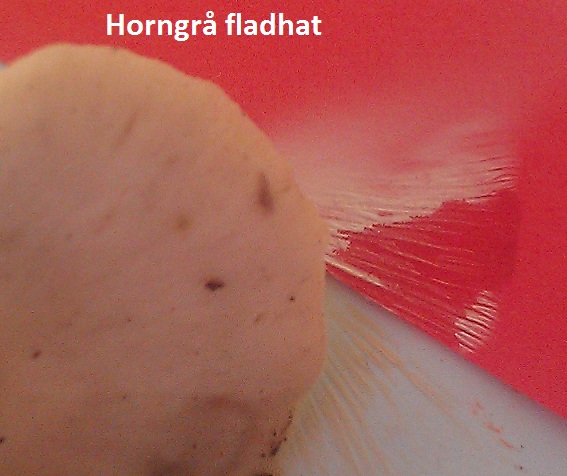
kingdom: Fungi
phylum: Basidiomycota
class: Agaricomycetes
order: Agaricales
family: Omphalotaceae
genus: Rhodocollybia
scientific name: Rhodocollybia asema
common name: horngrå fladhat
